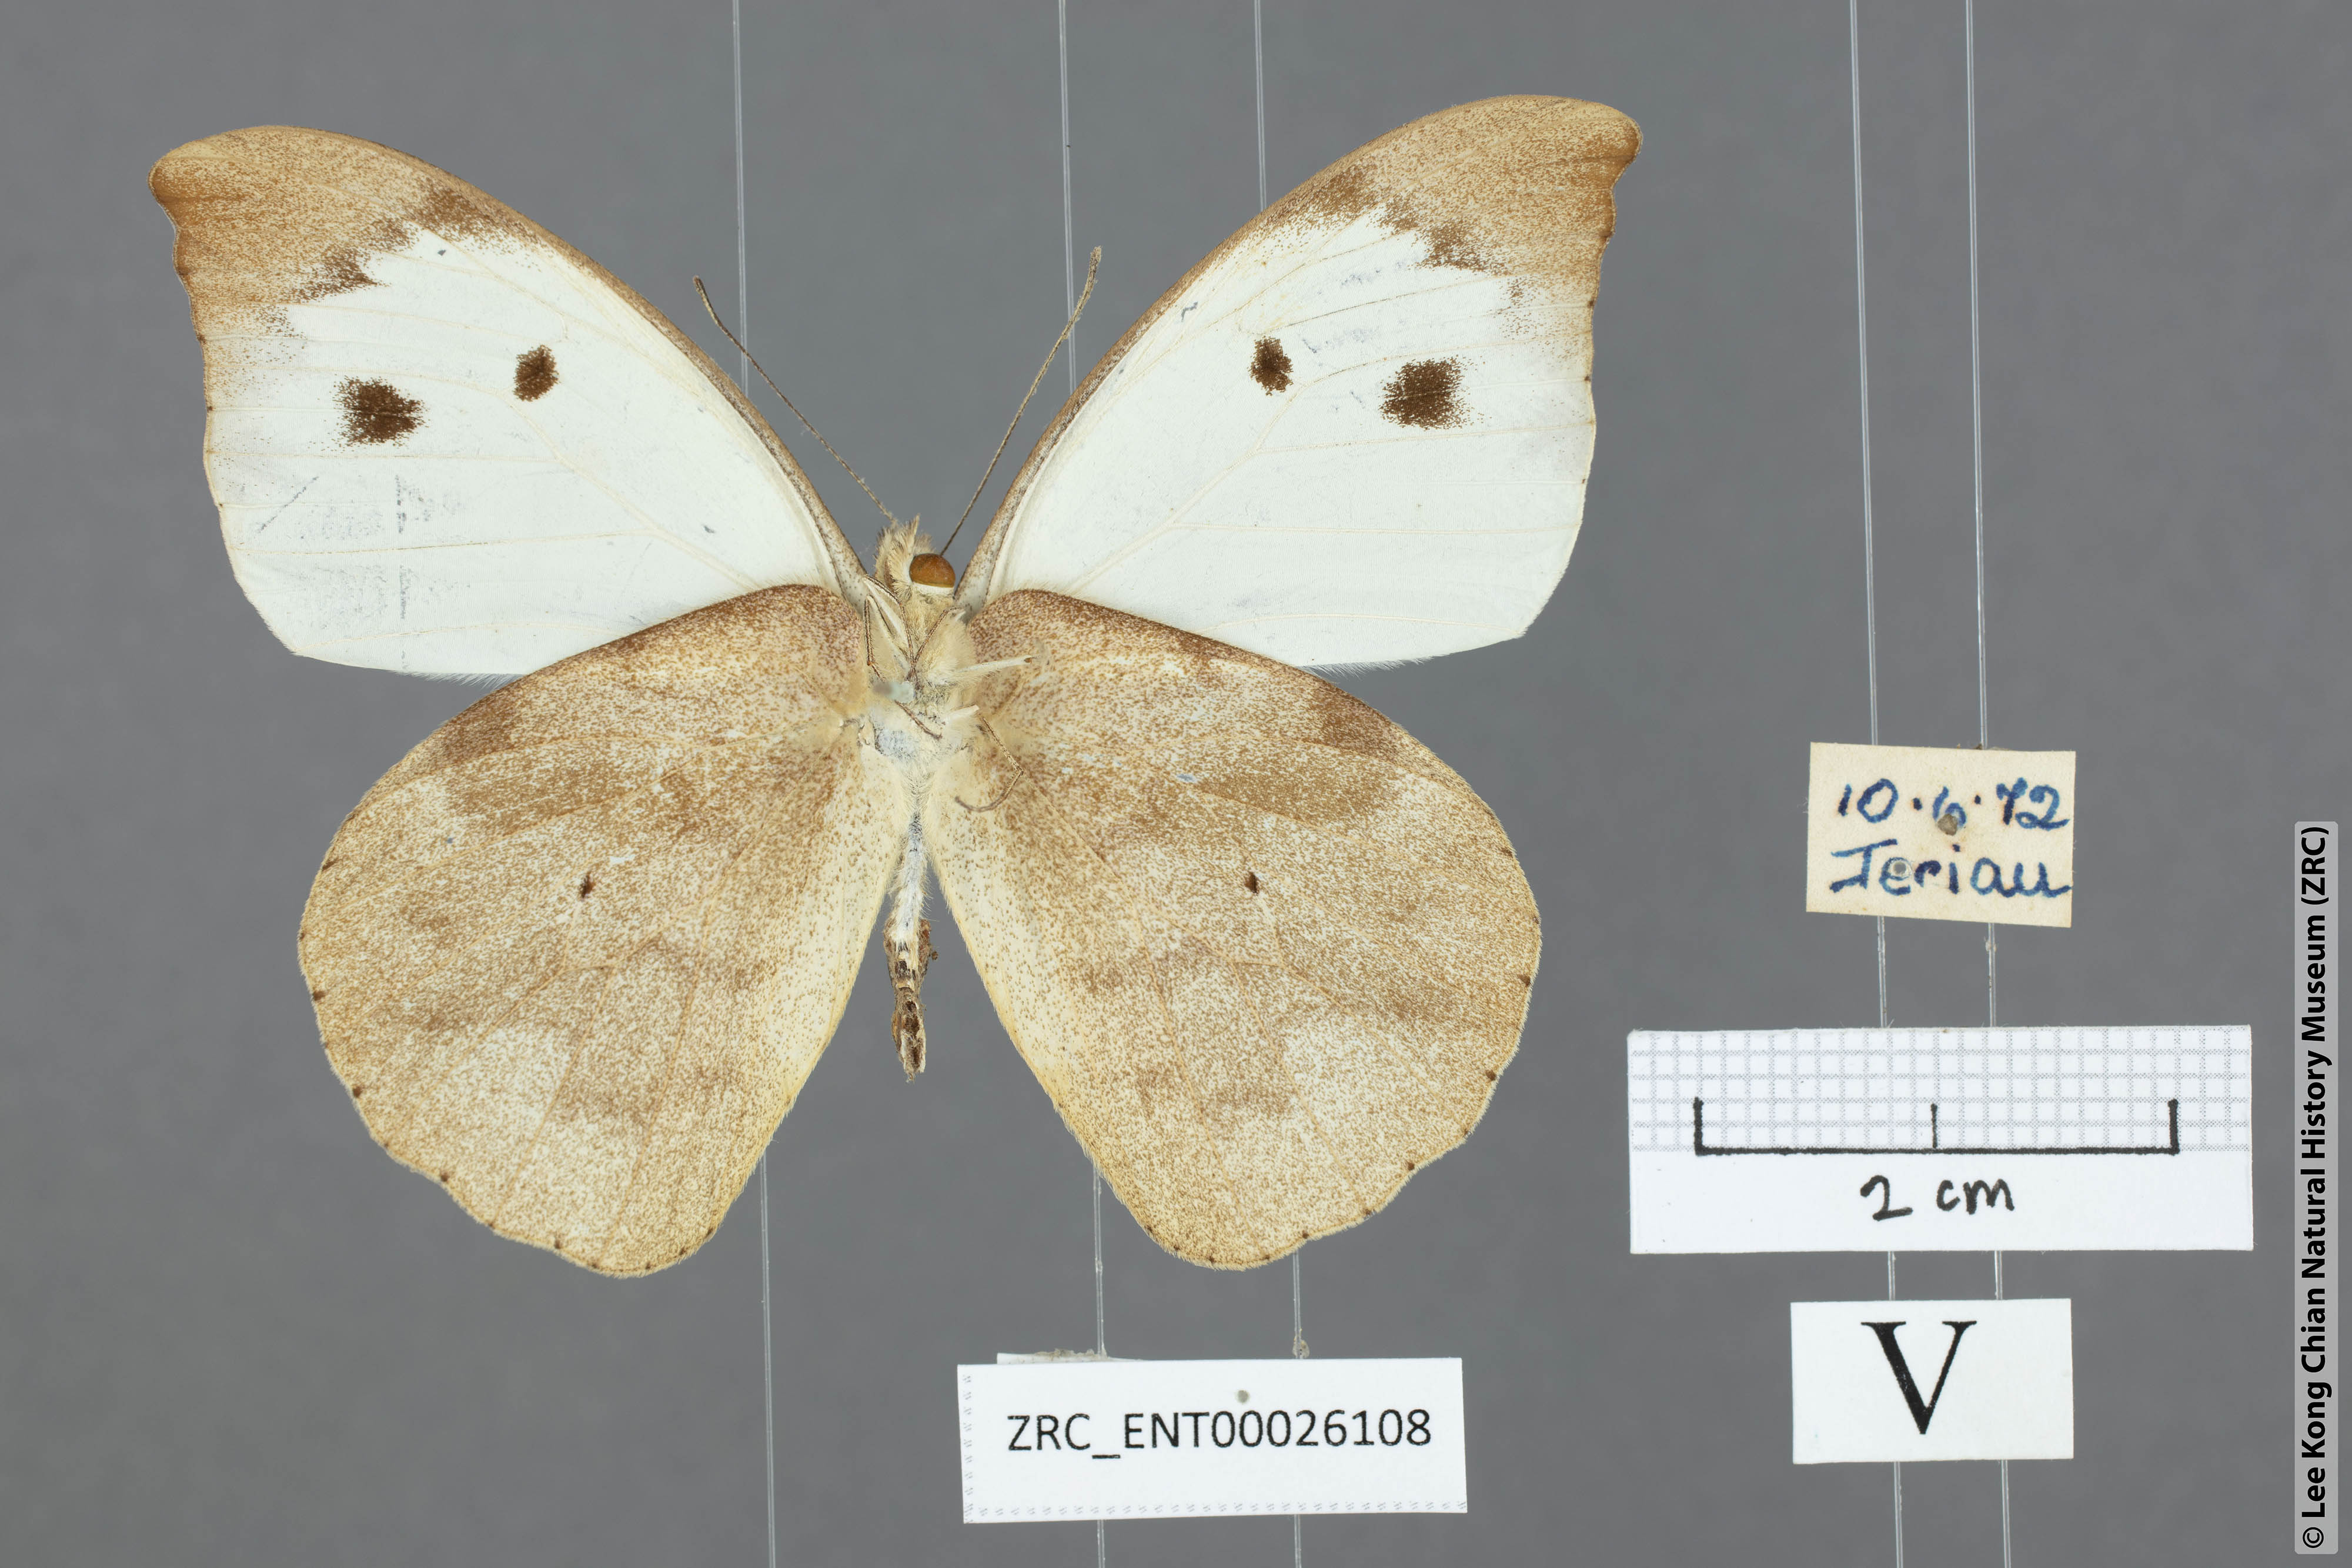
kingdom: Animalia
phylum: Arthropoda
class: Insecta
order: Lepidoptera
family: Pieridae
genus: Appias
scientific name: Appias lalassis
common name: Burmese puffin
